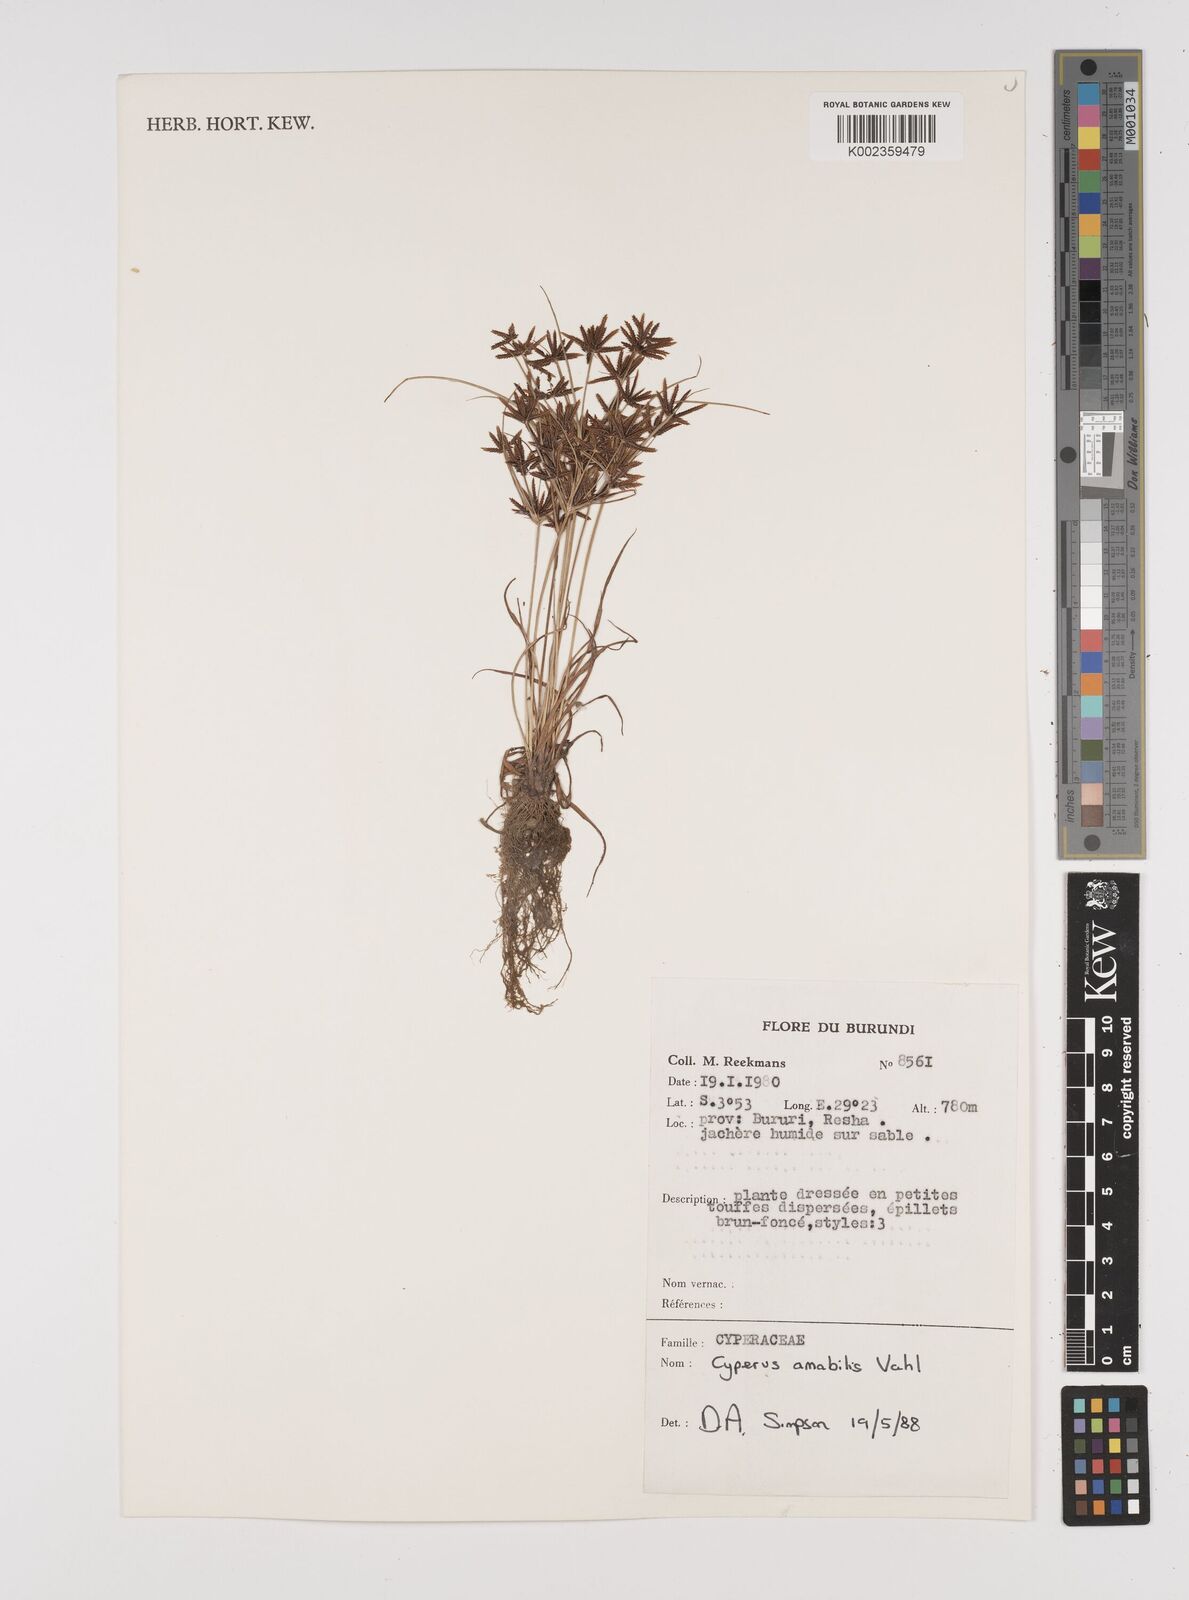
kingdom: Plantae
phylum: Tracheophyta
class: Liliopsida
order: Poales
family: Cyperaceae
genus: Cyperus
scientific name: Cyperus amabilis
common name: Foothill flat sedge
